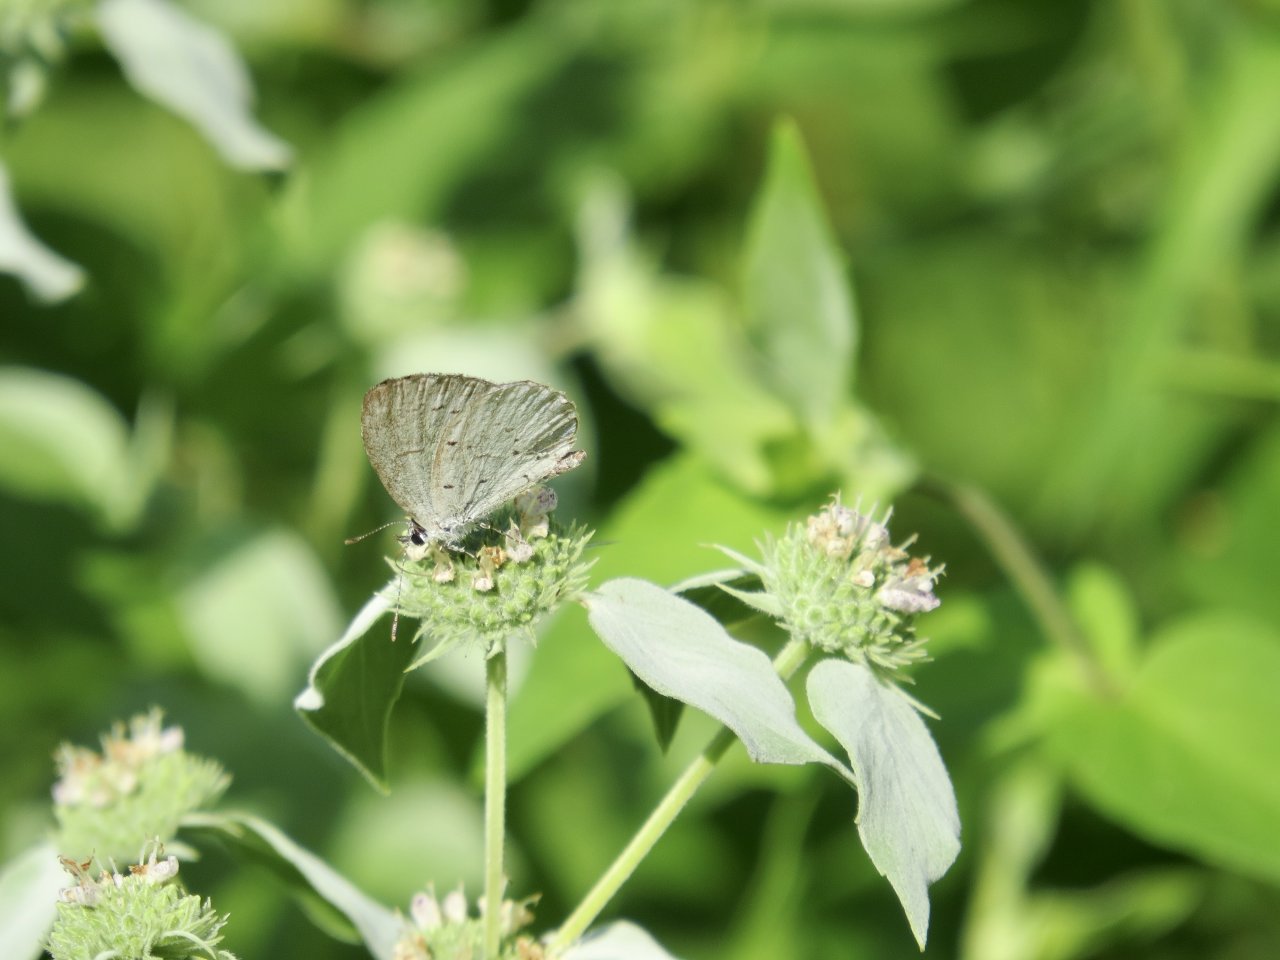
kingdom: Animalia
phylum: Arthropoda
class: Insecta
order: Lepidoptera
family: Lycaenidae
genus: Cyaniris
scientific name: Cyaniris neglecta
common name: Summer Azure
